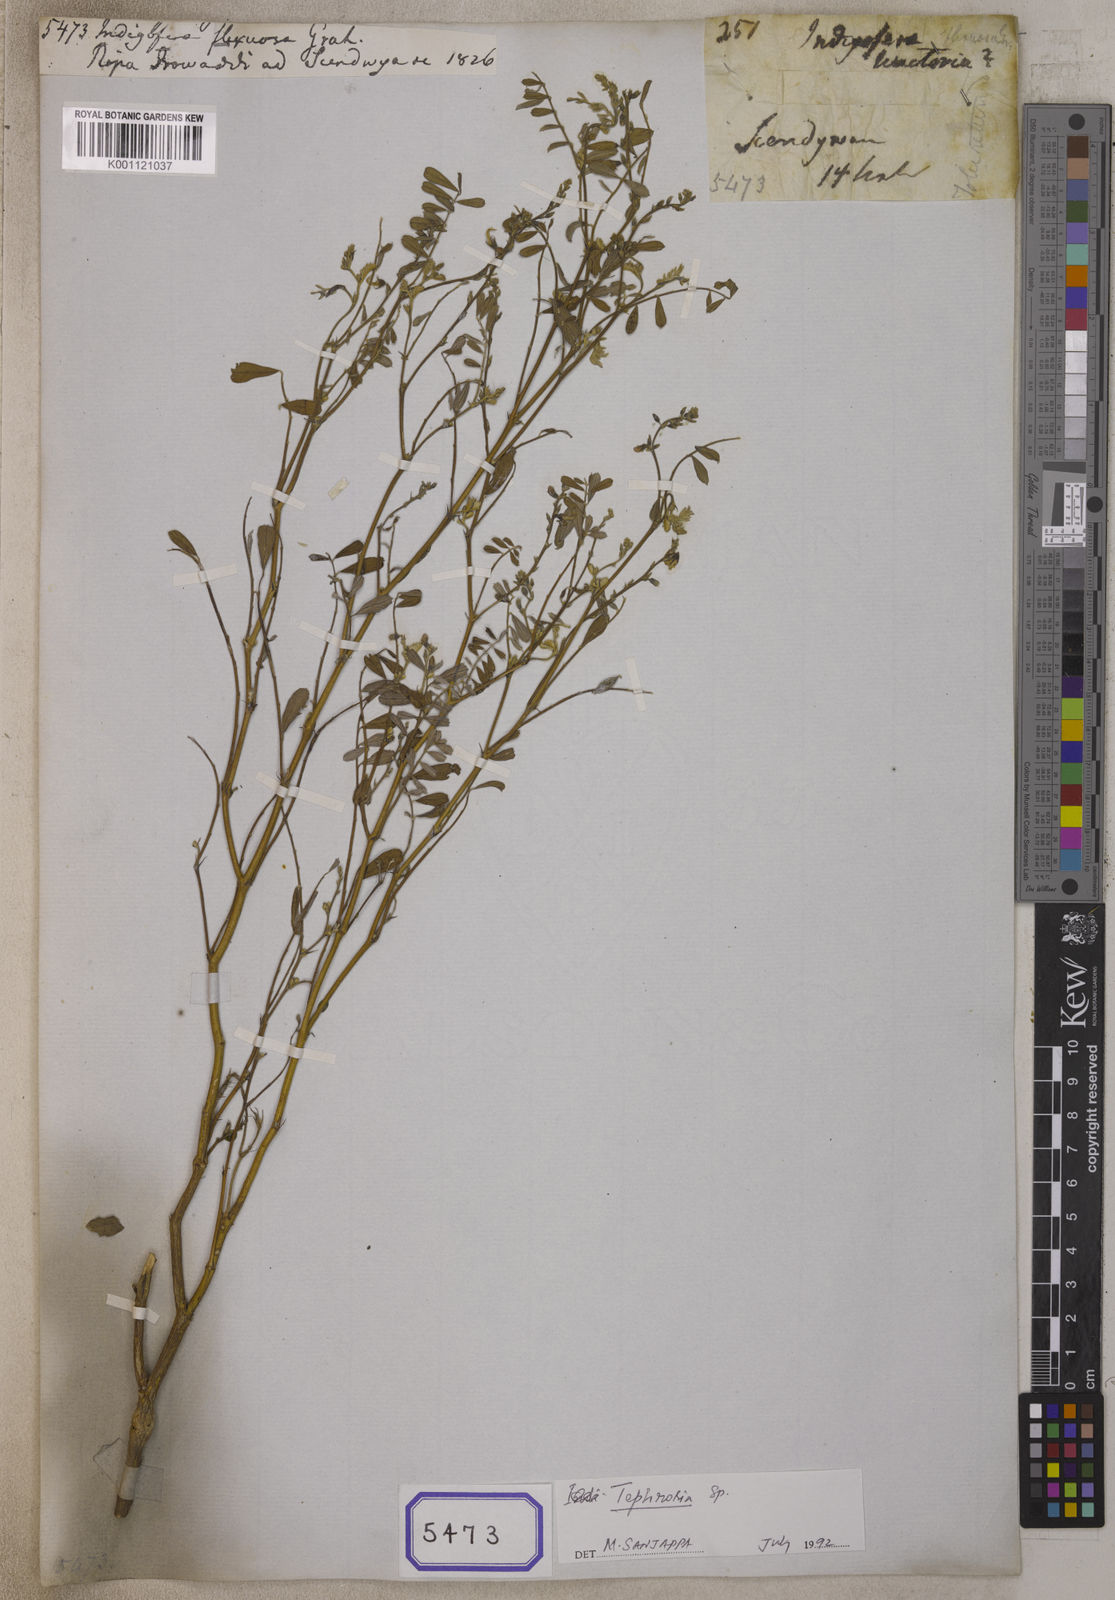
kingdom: Plantae
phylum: Tracheophyta
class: Magnoliopsida
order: Fabales
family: Fabaceae
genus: Tephrosia
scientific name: Tephrosia purpurea
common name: Fishpoison
